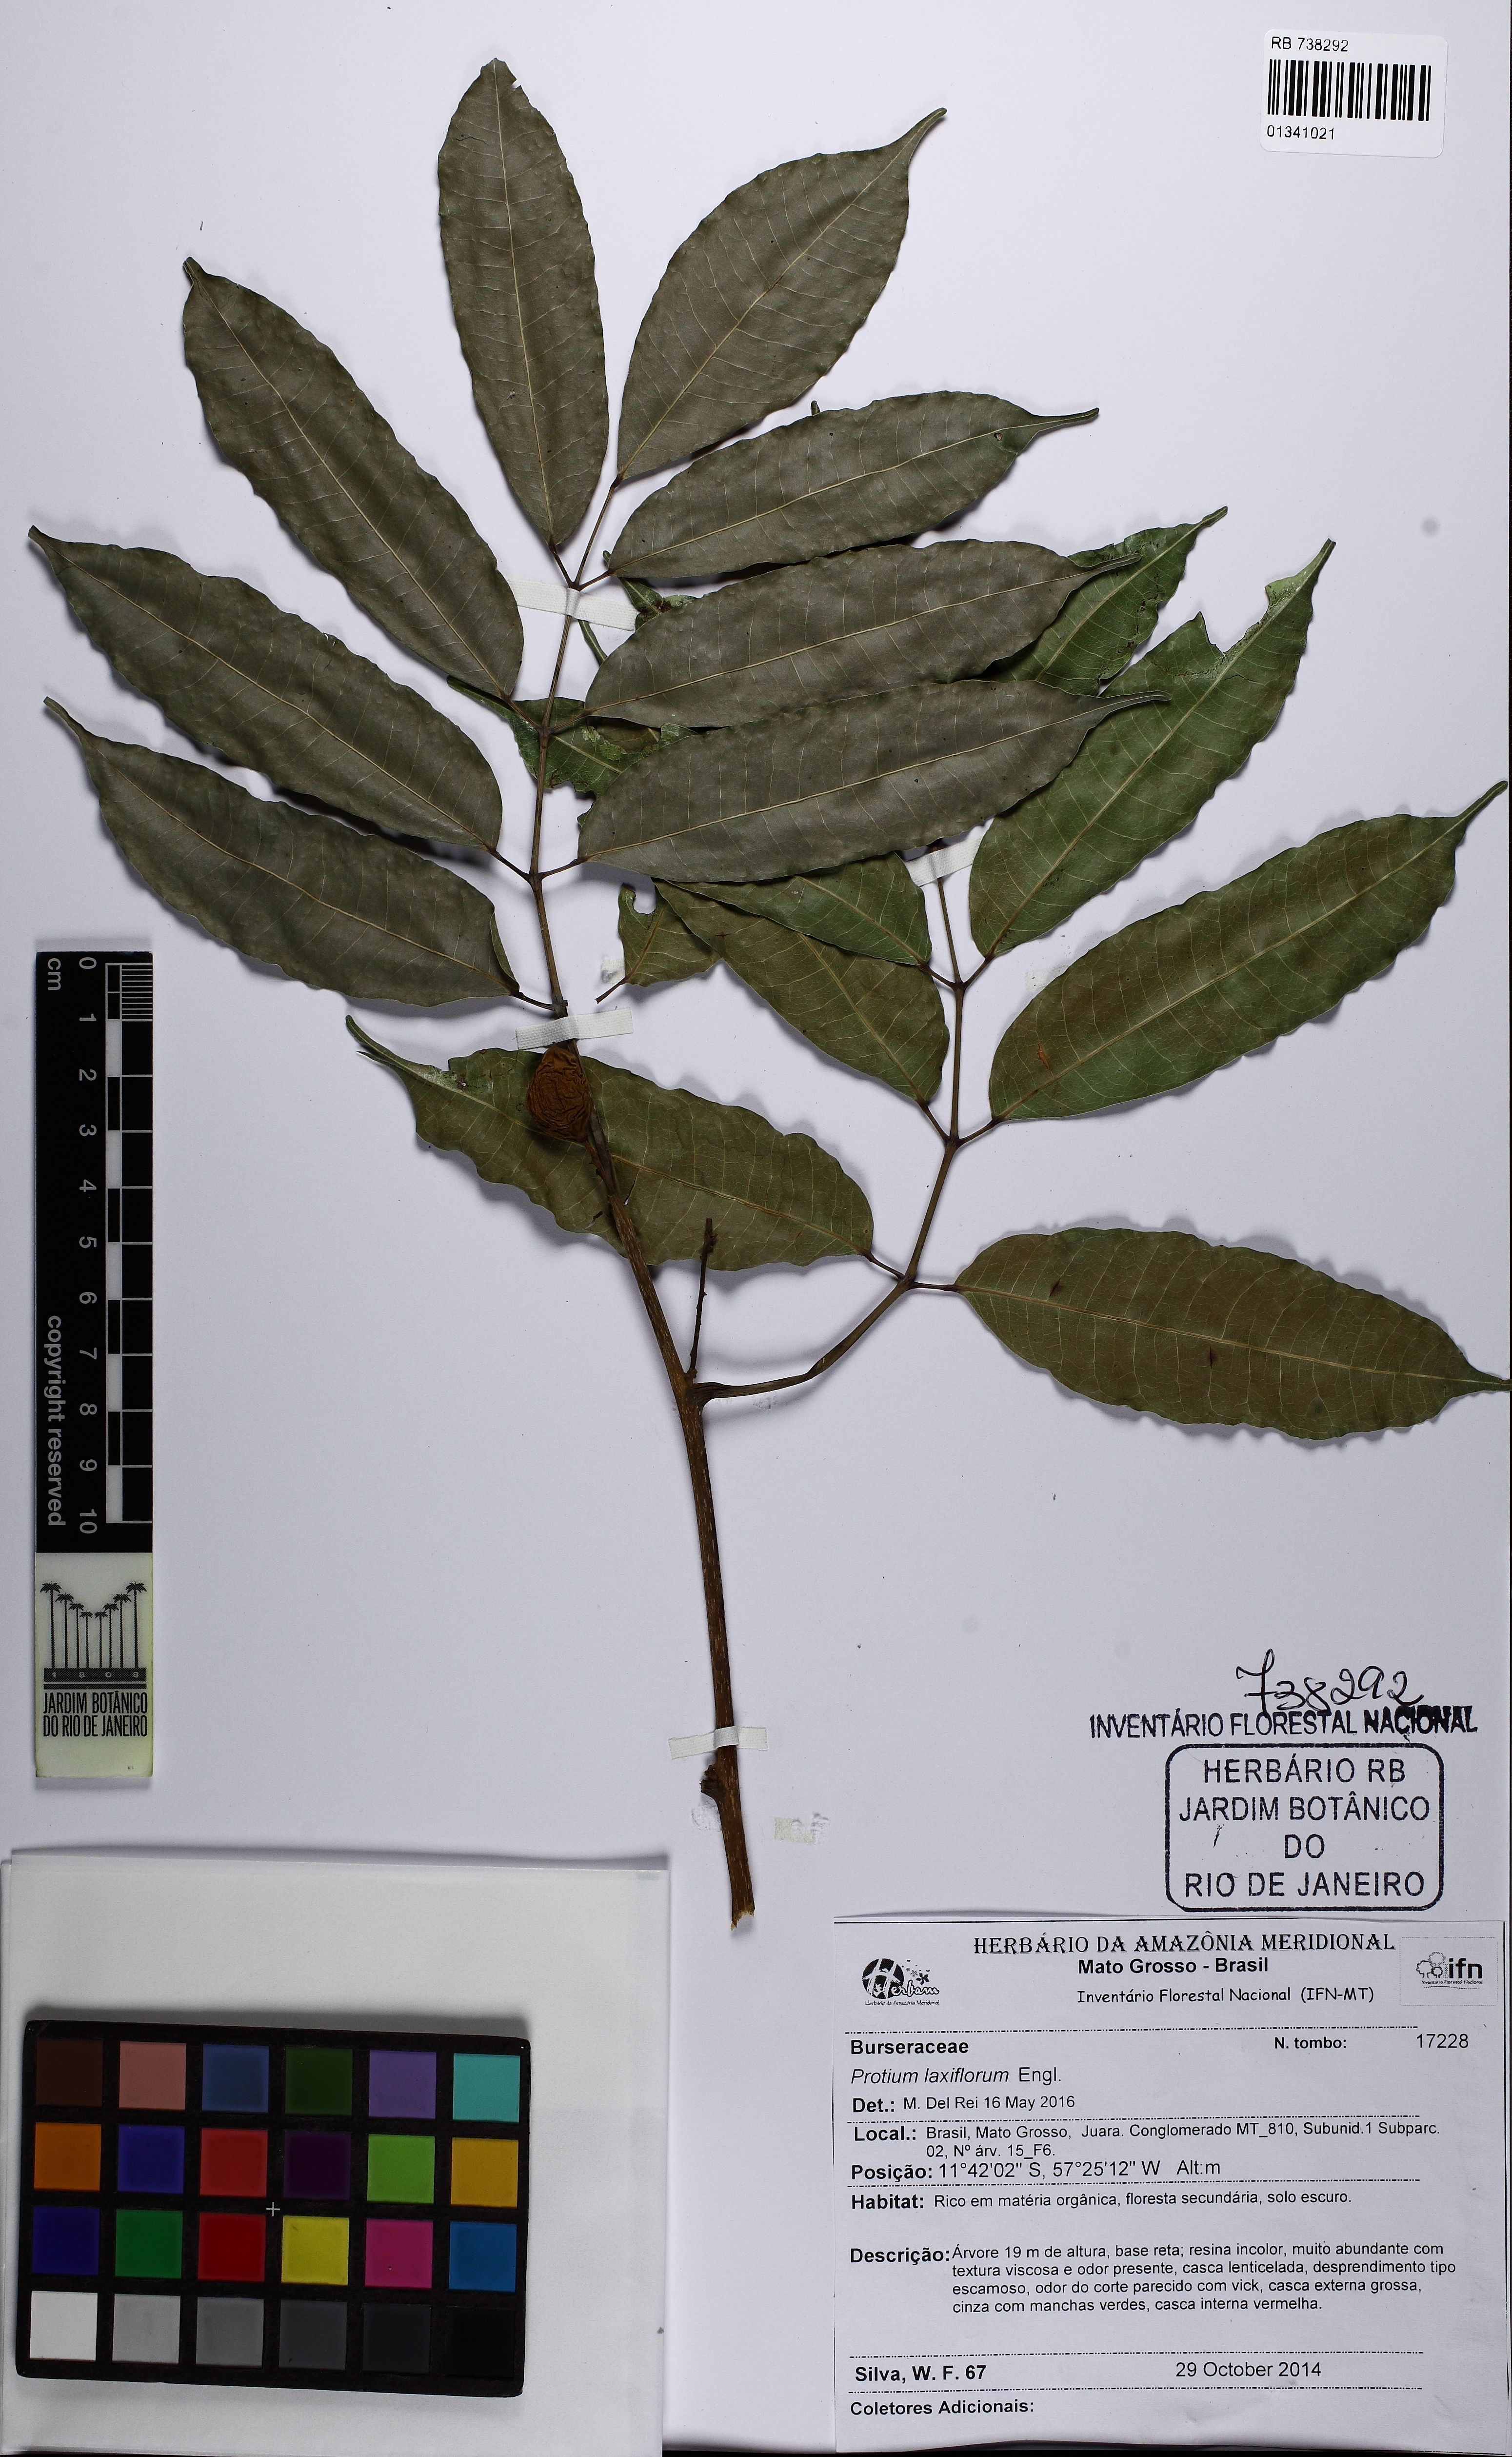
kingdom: Plantae
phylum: Tracheophyta
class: Magnoliopsida
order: Sapindales
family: Burseraceae
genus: Protium
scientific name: Protium
